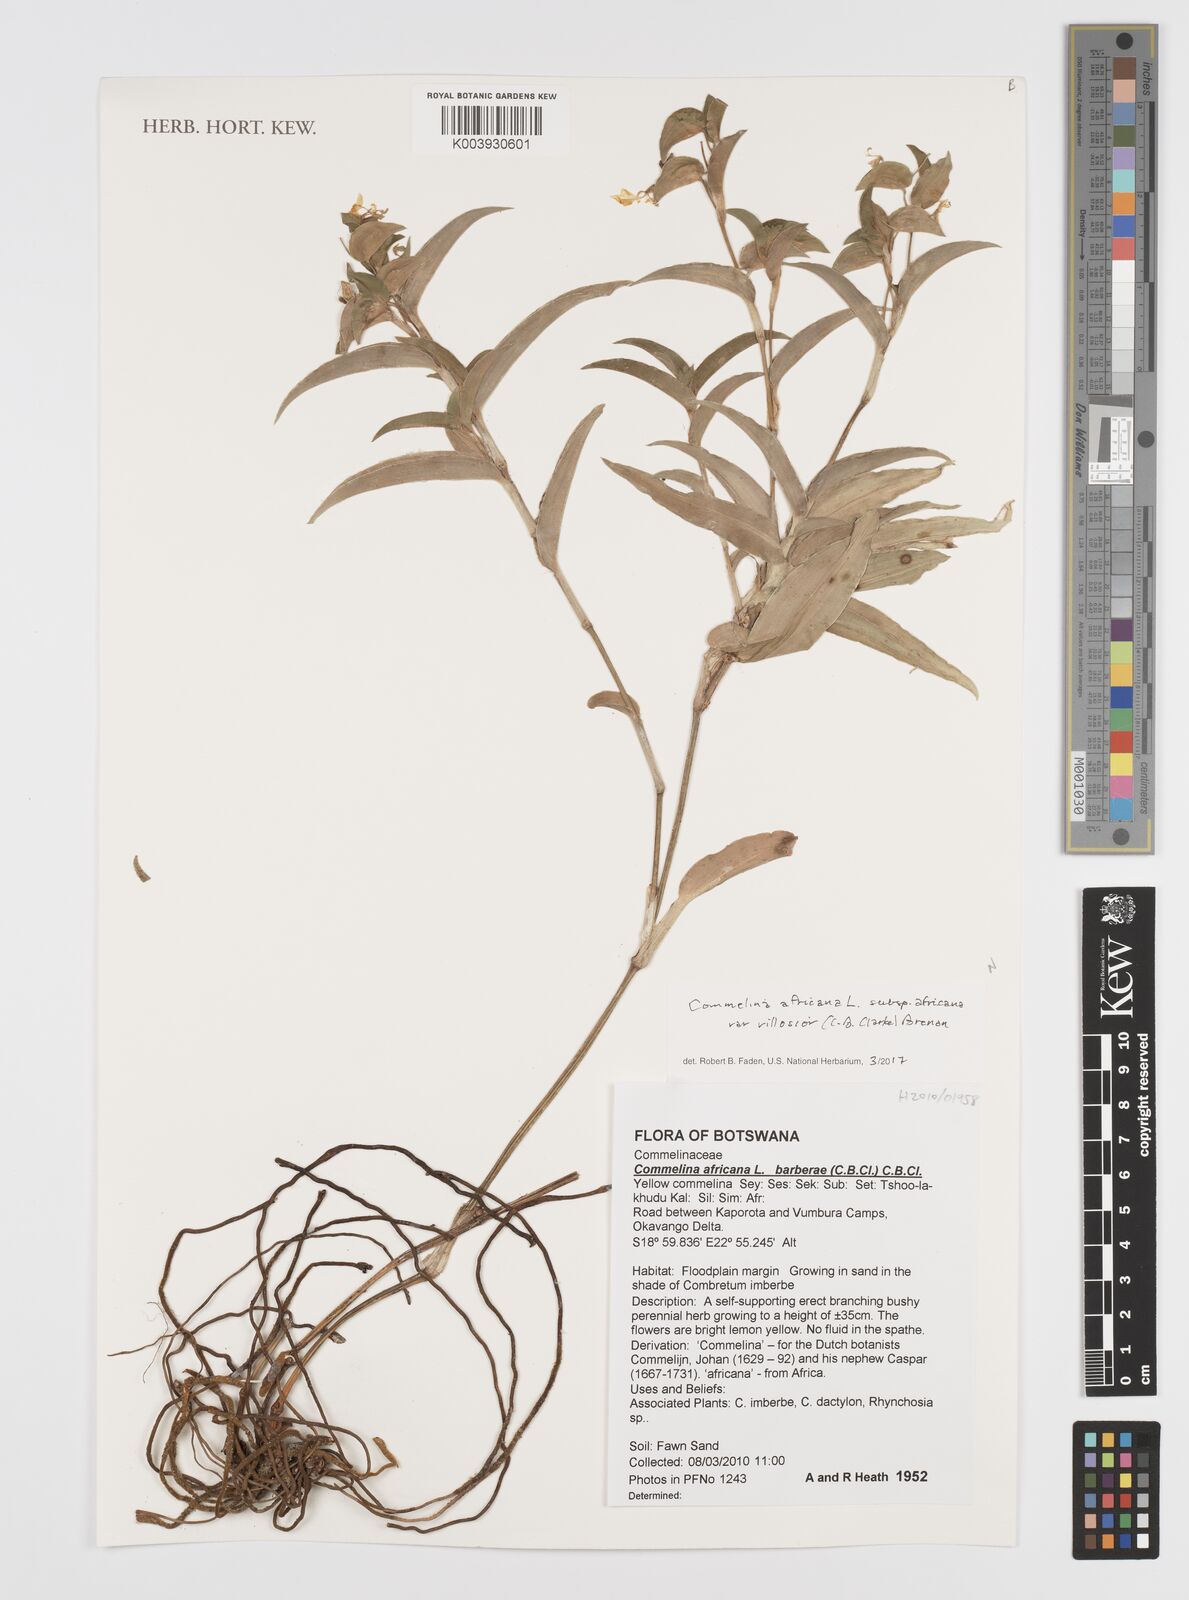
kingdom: Plantae
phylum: Tracheophyta
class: Liliopsida
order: Commelinales
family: Commelinaceae
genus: Commelina
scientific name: Commelina africana
